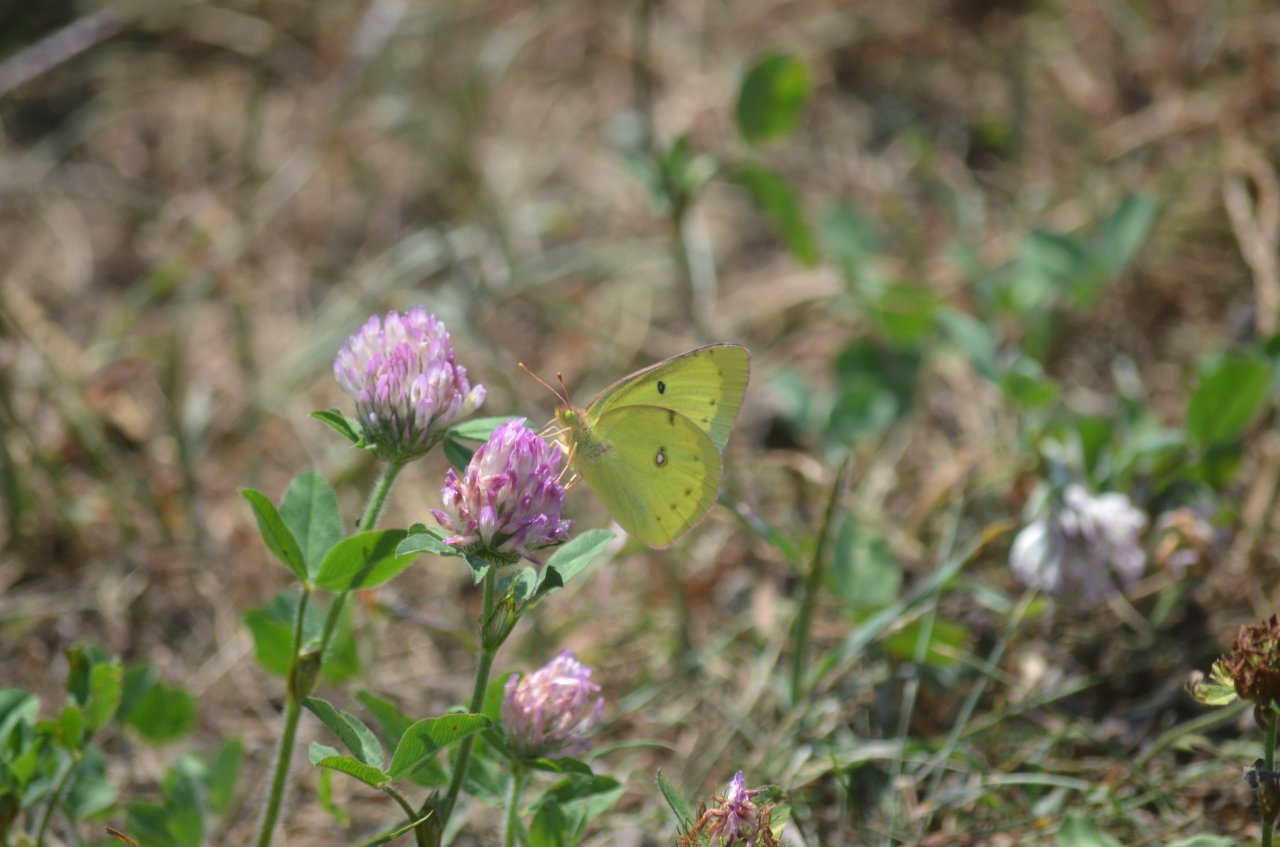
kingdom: Animalia
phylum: Arthropoda
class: Insecta
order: Lepidoptera
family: Pieridae
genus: Colias
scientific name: Colias philodice
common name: Clouded Sulphur
